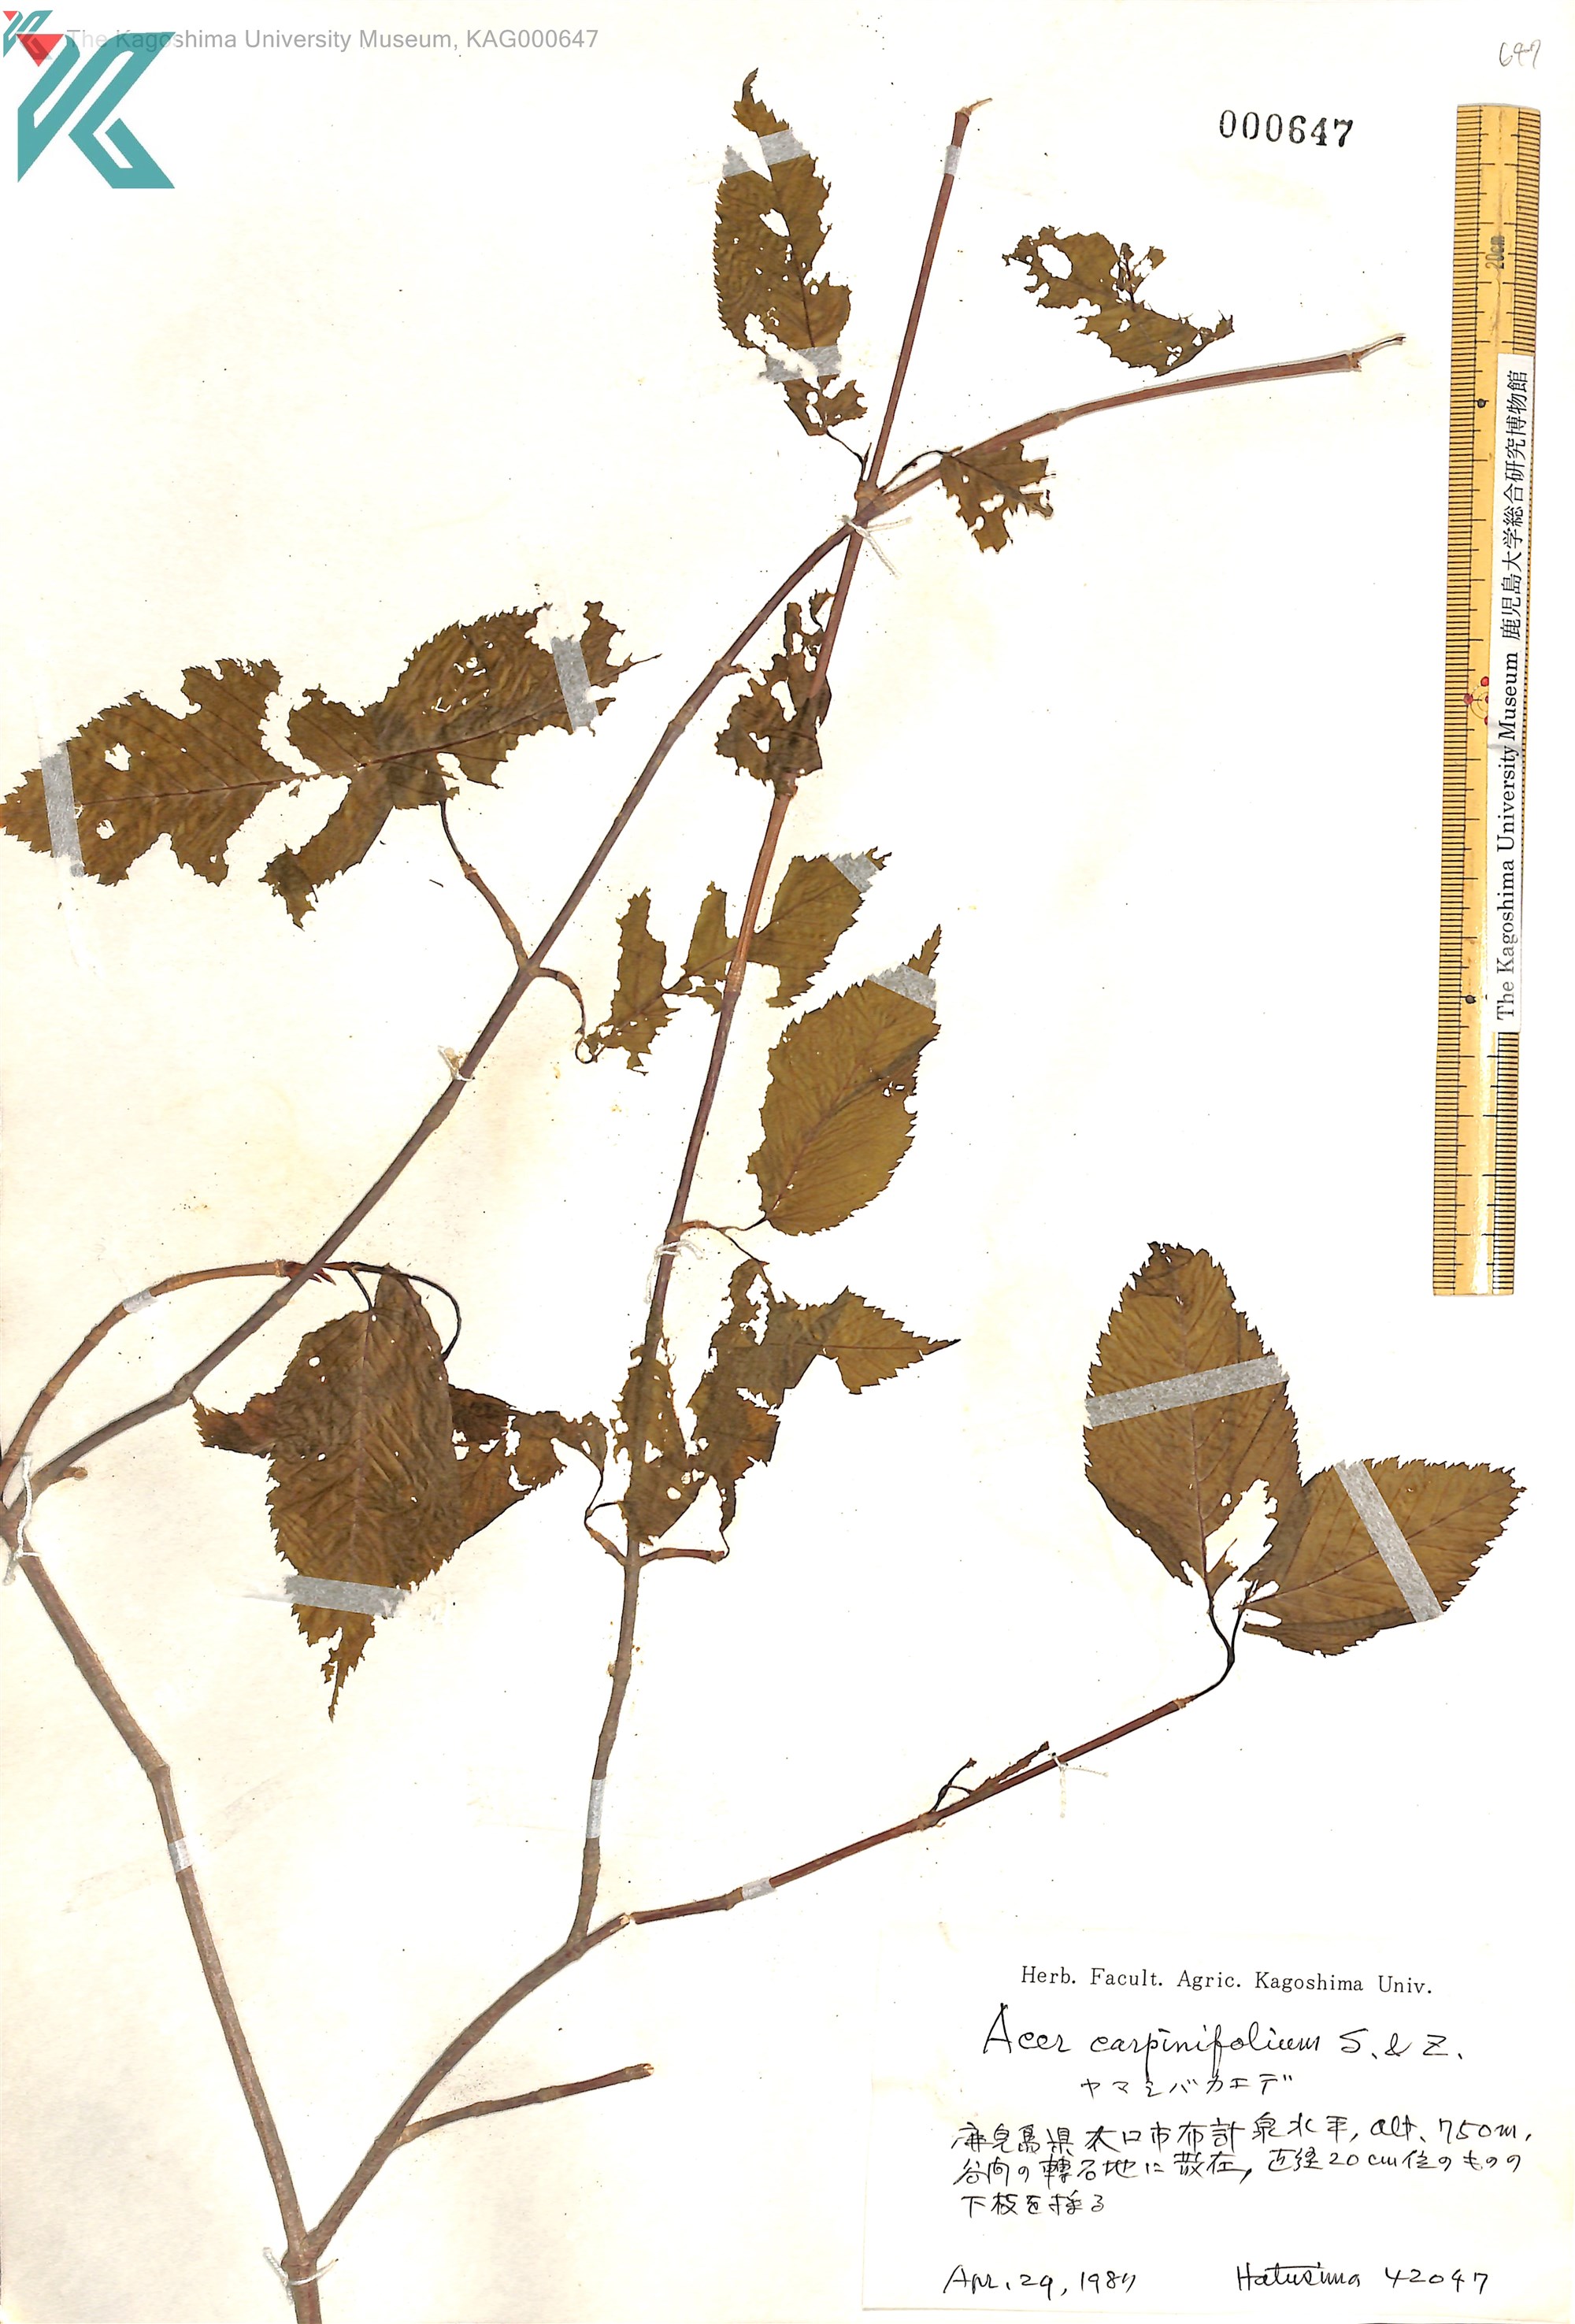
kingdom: Plantae
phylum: Tracheophyta
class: Magnoliopsida
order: Sapindales
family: Sapindaceae
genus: Acer
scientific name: Acer carpinifolium
